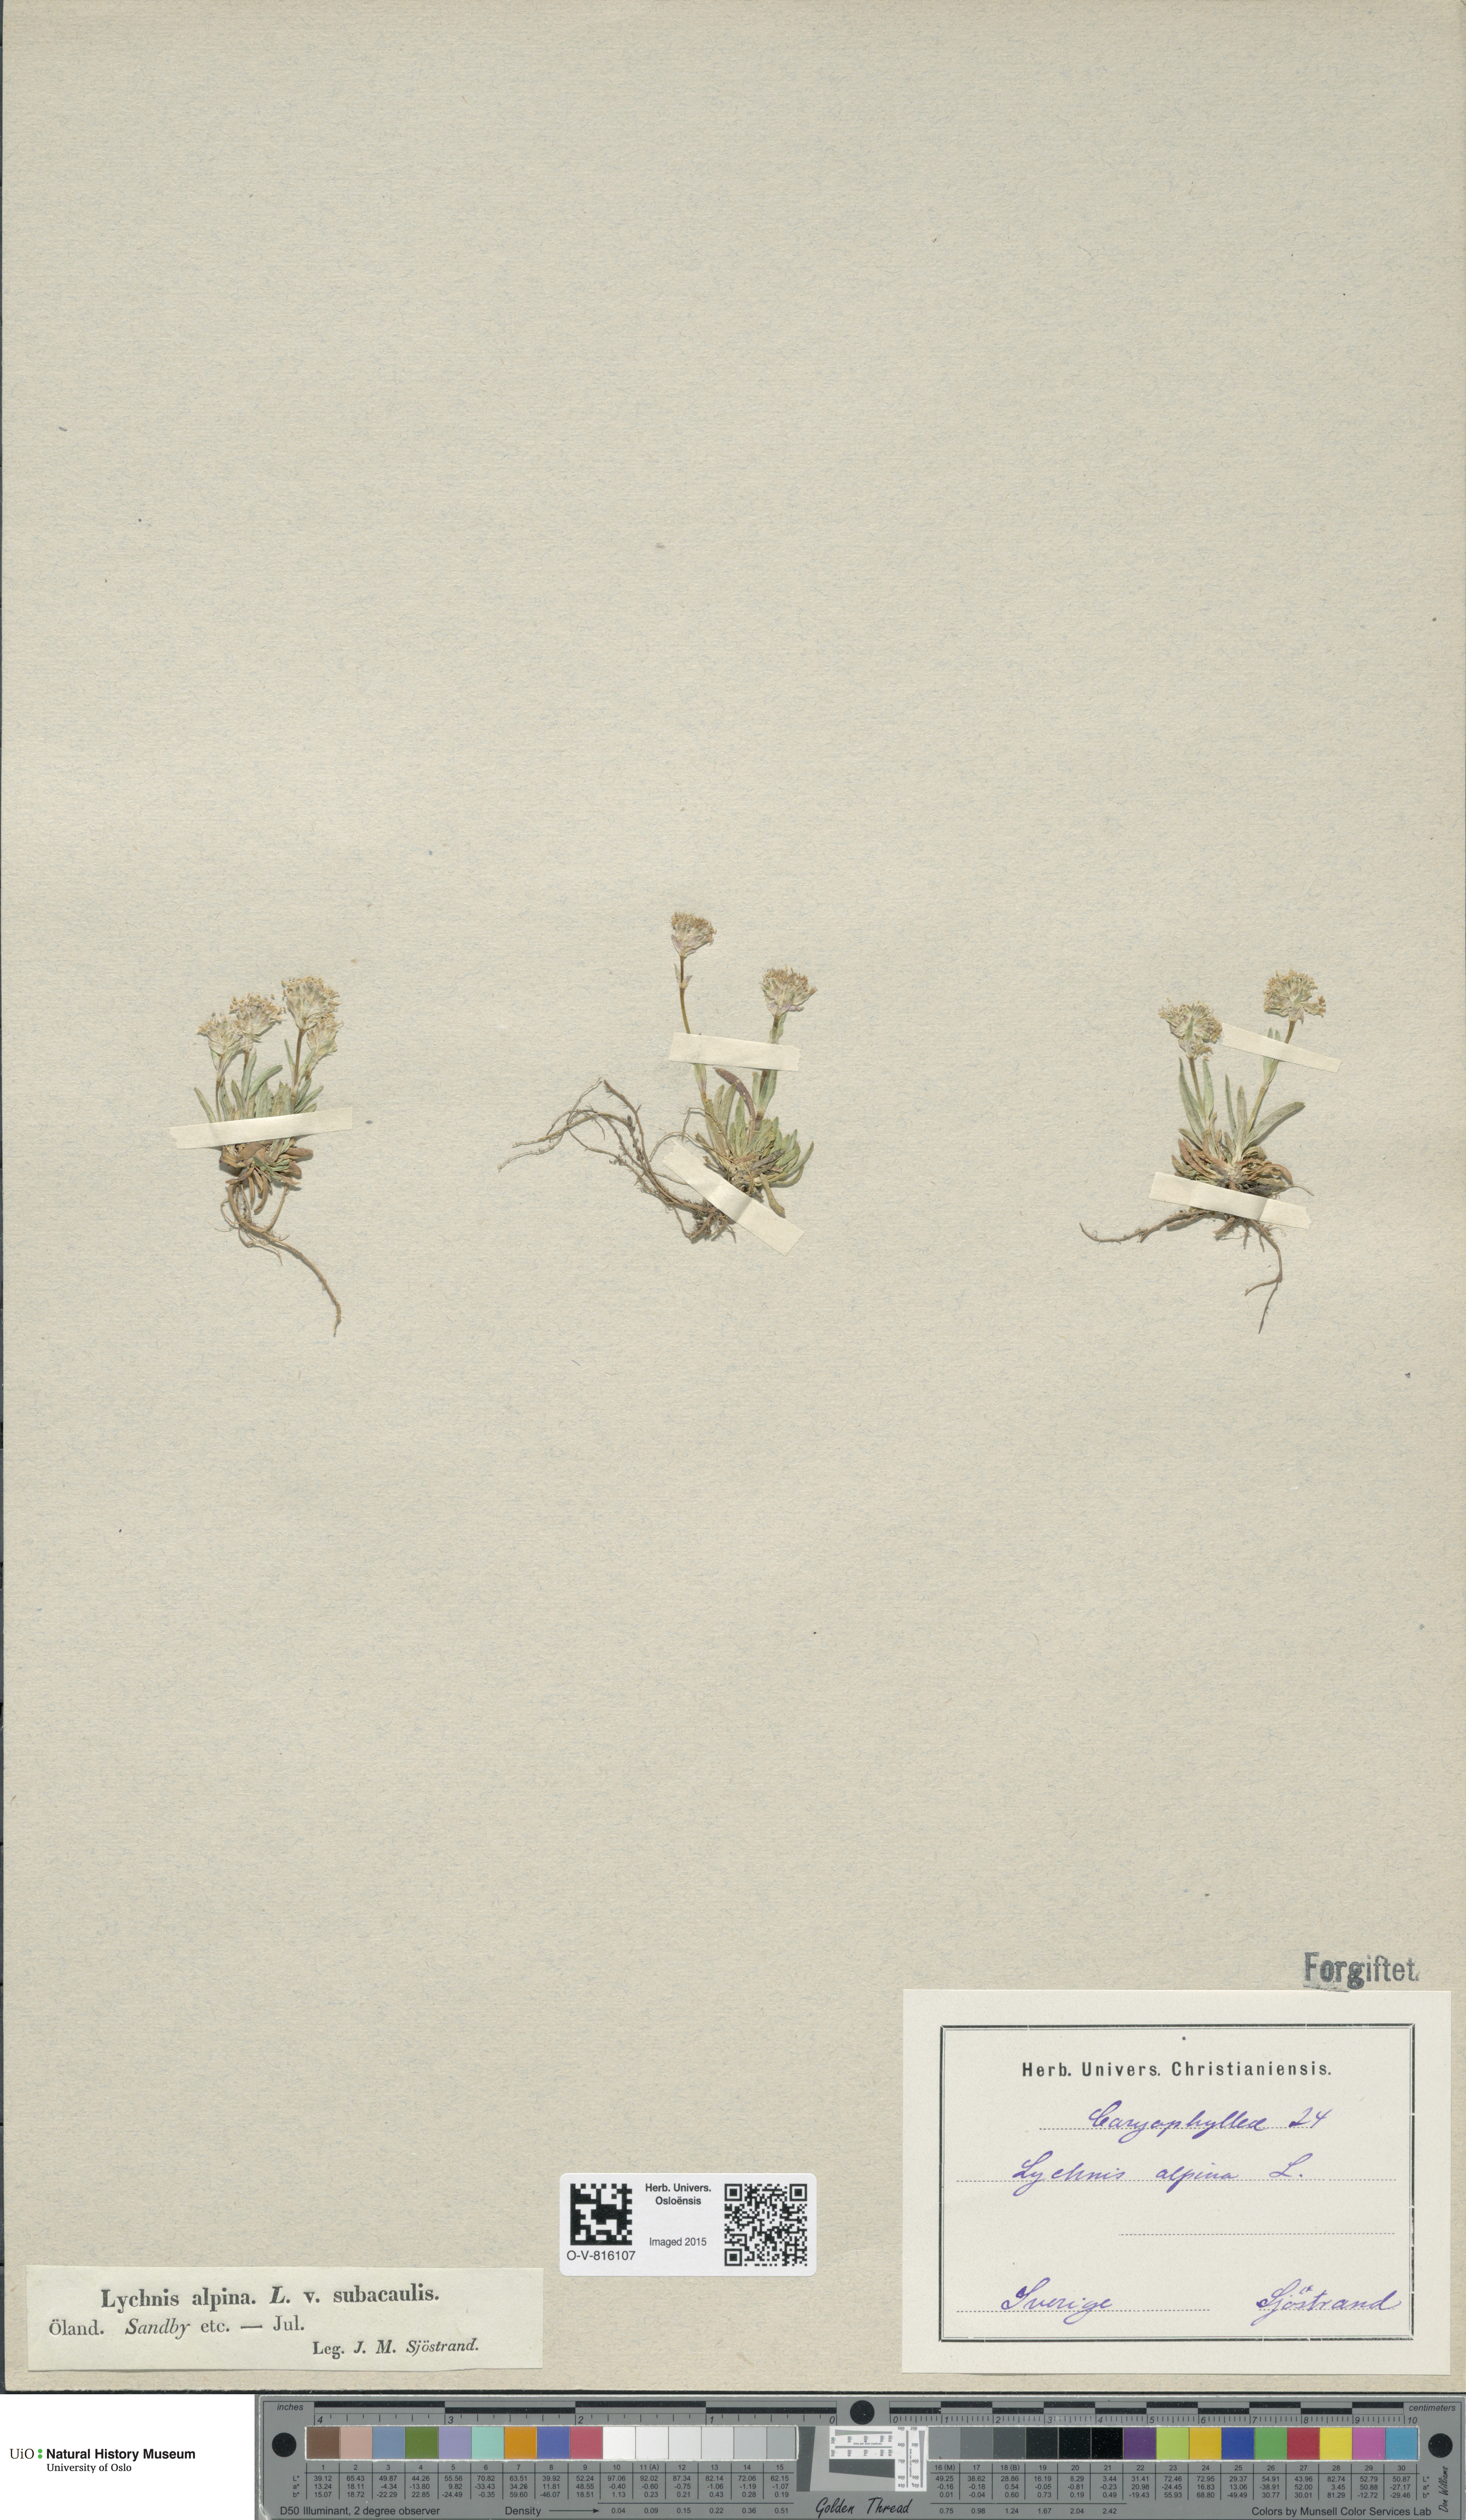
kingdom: Plantae
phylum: Tracheophyta
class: Magnoliopsida
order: Caryophyllales
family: Caryophyllaceae
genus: Viscaria
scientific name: Viscaria alpina
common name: Alpine campion
